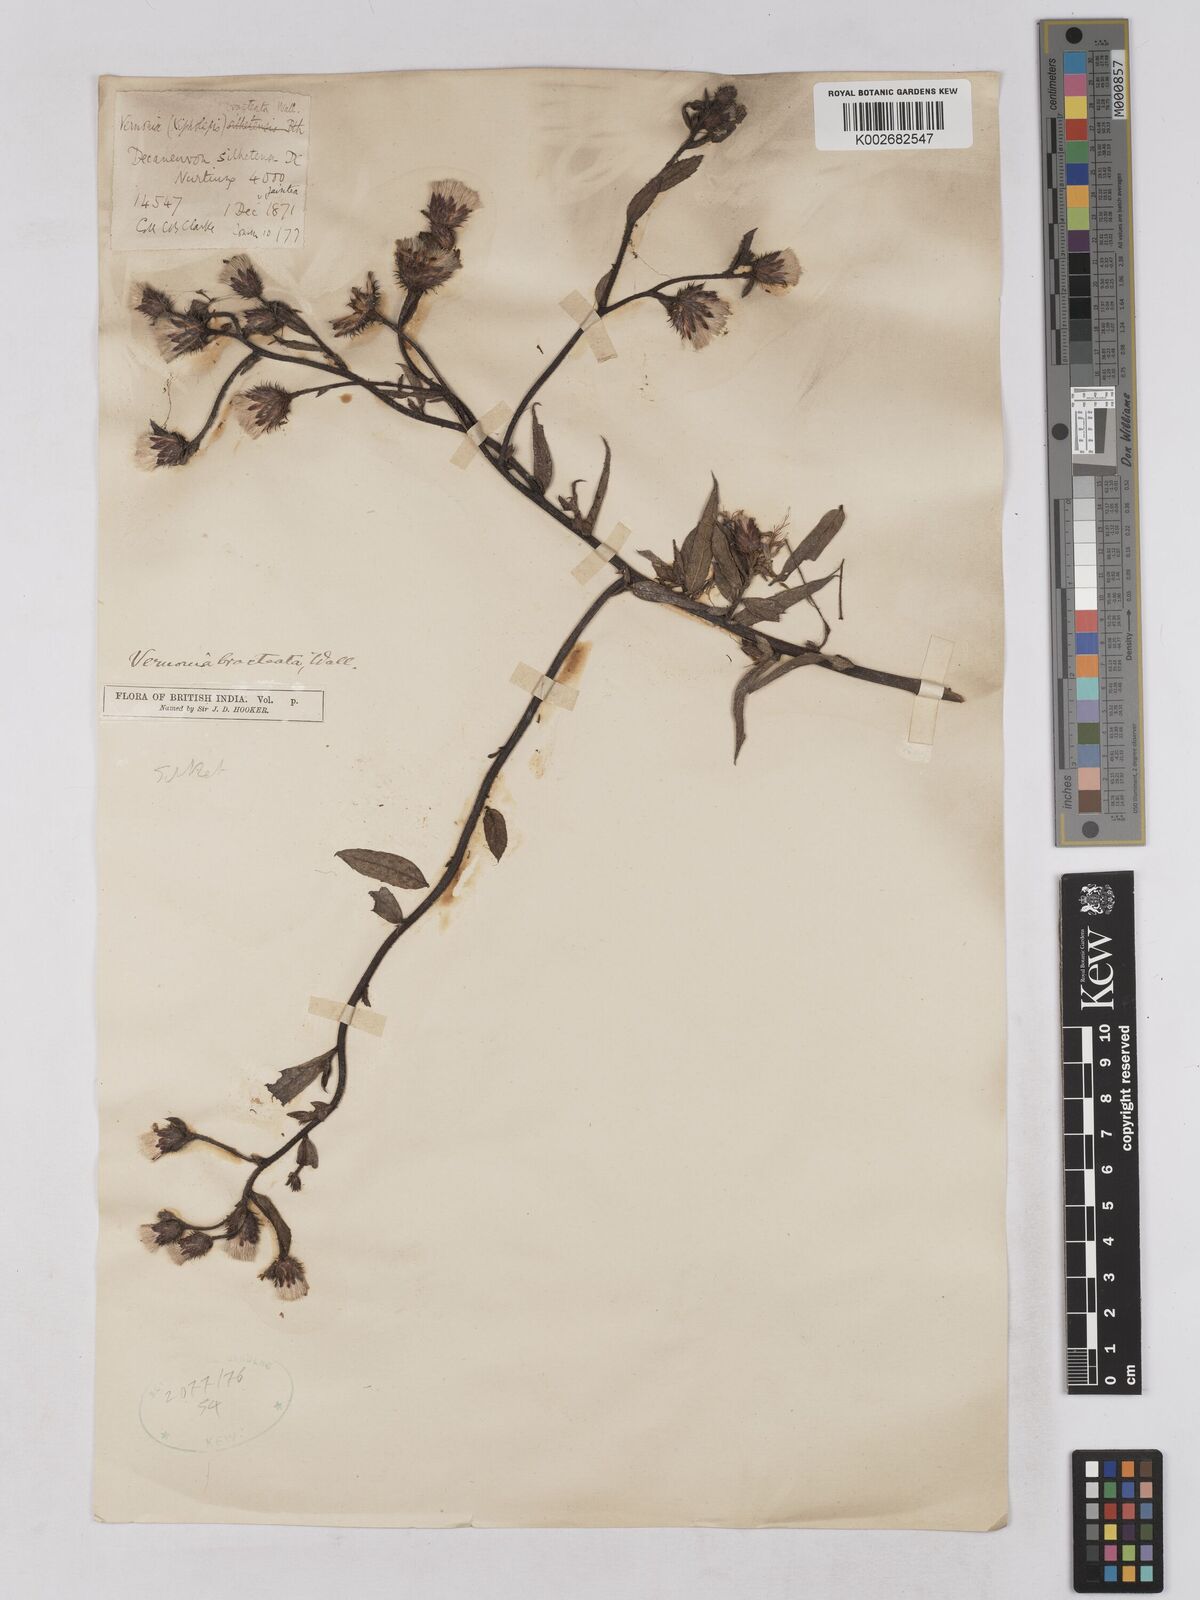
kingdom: Plantae
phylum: Tracheophyta
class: Magnoliopsida
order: Asterales
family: Asteraceae
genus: Acilepis
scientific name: Acilepis silhetensis
